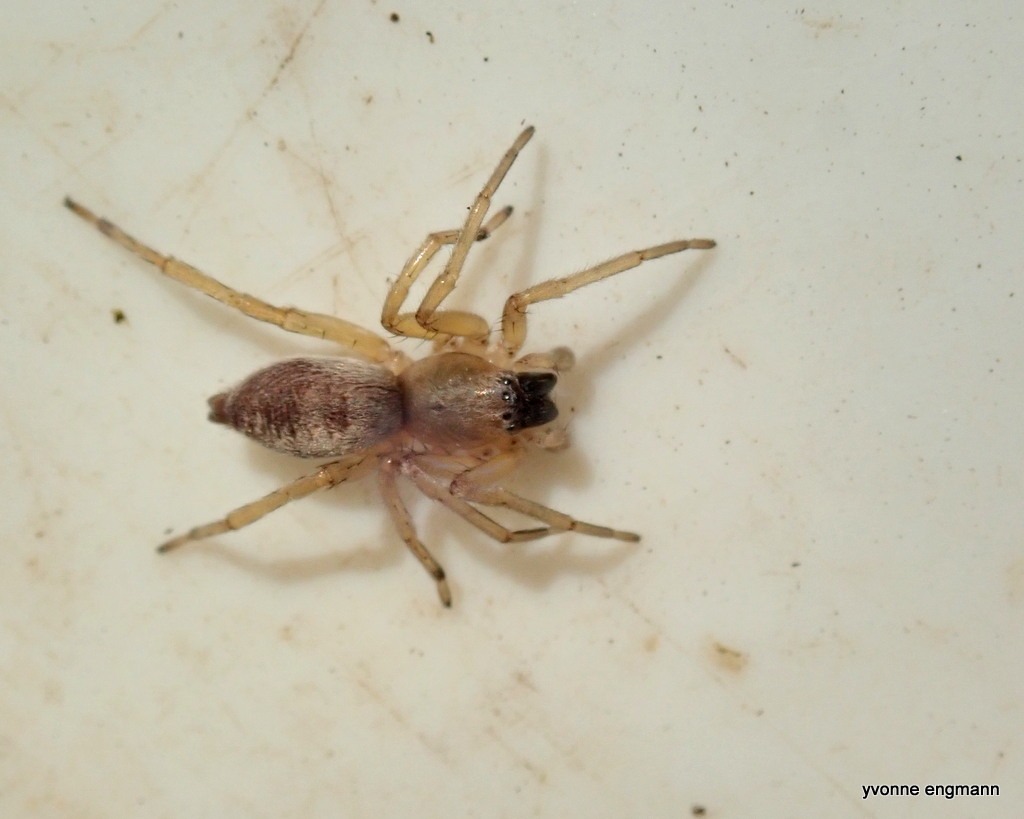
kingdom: Animalia
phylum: Arthropoda
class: Arachnida
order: Araneae
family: Clubionidae
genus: Clubiona
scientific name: Clubiona
